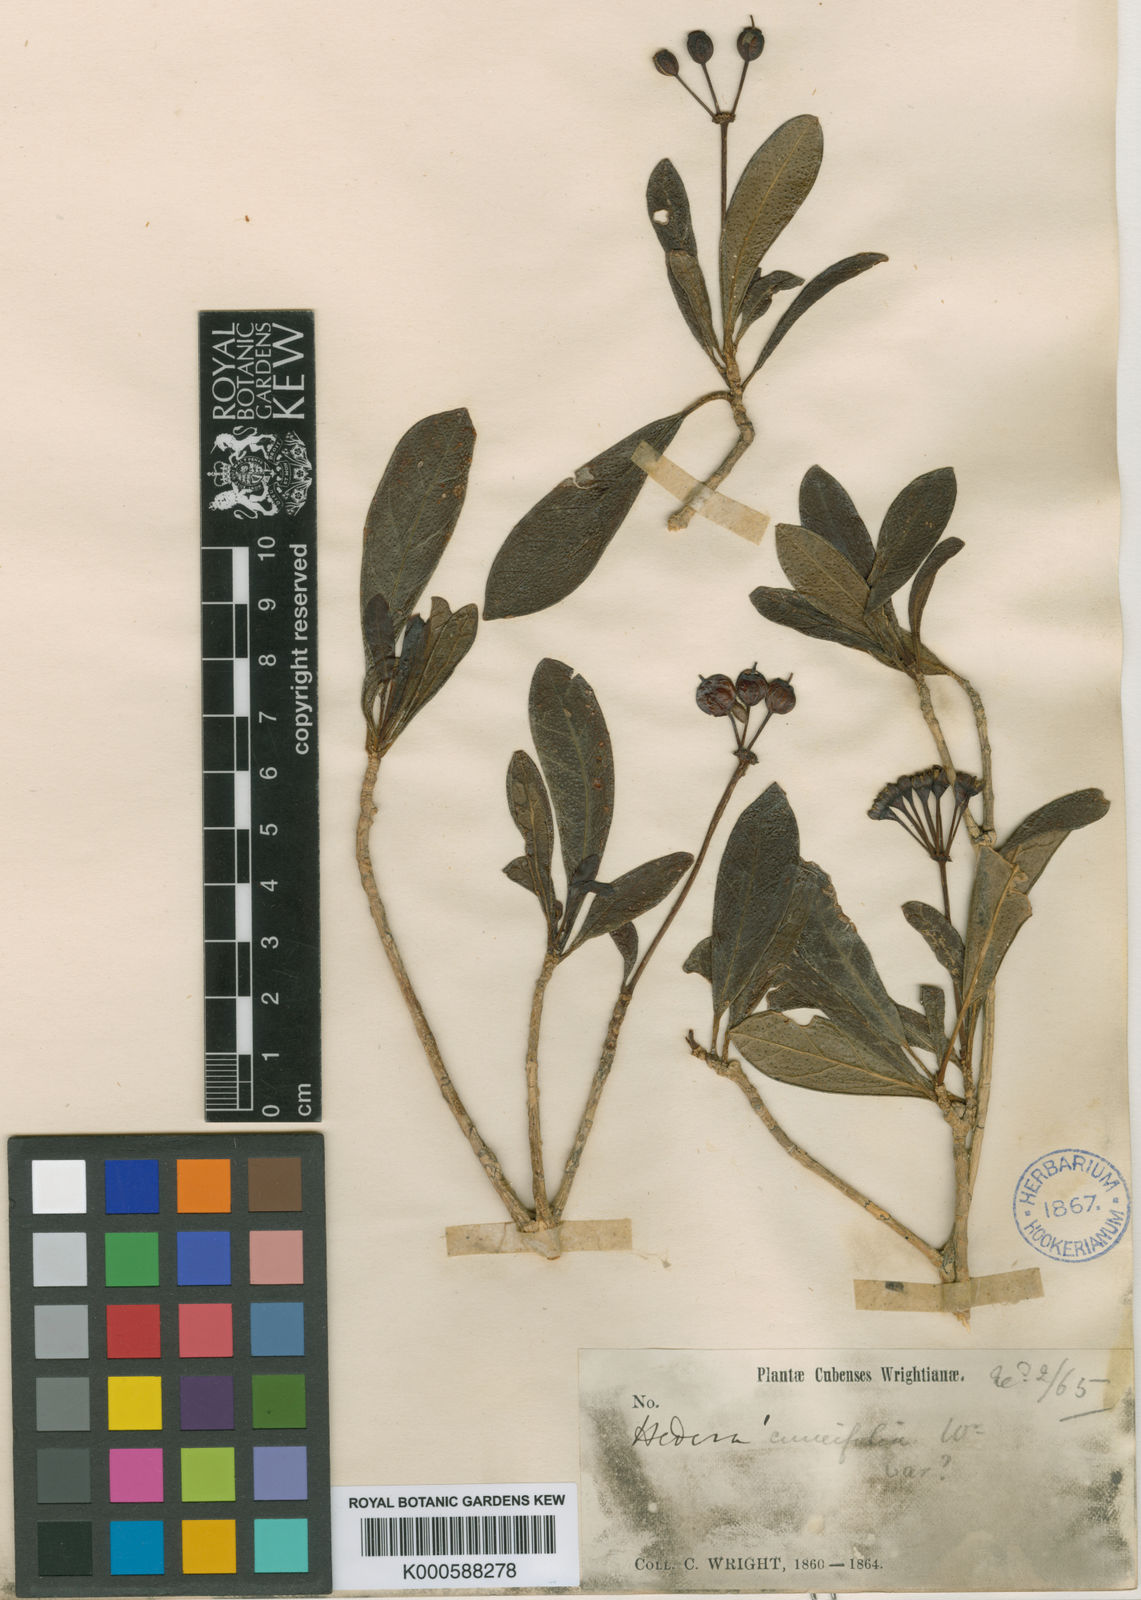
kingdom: Plantae
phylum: Tracheophyta
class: Magnoliopsida
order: Apiales
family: Araliaceae
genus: Dendropanax
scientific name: Dendropanax cuneifolius
